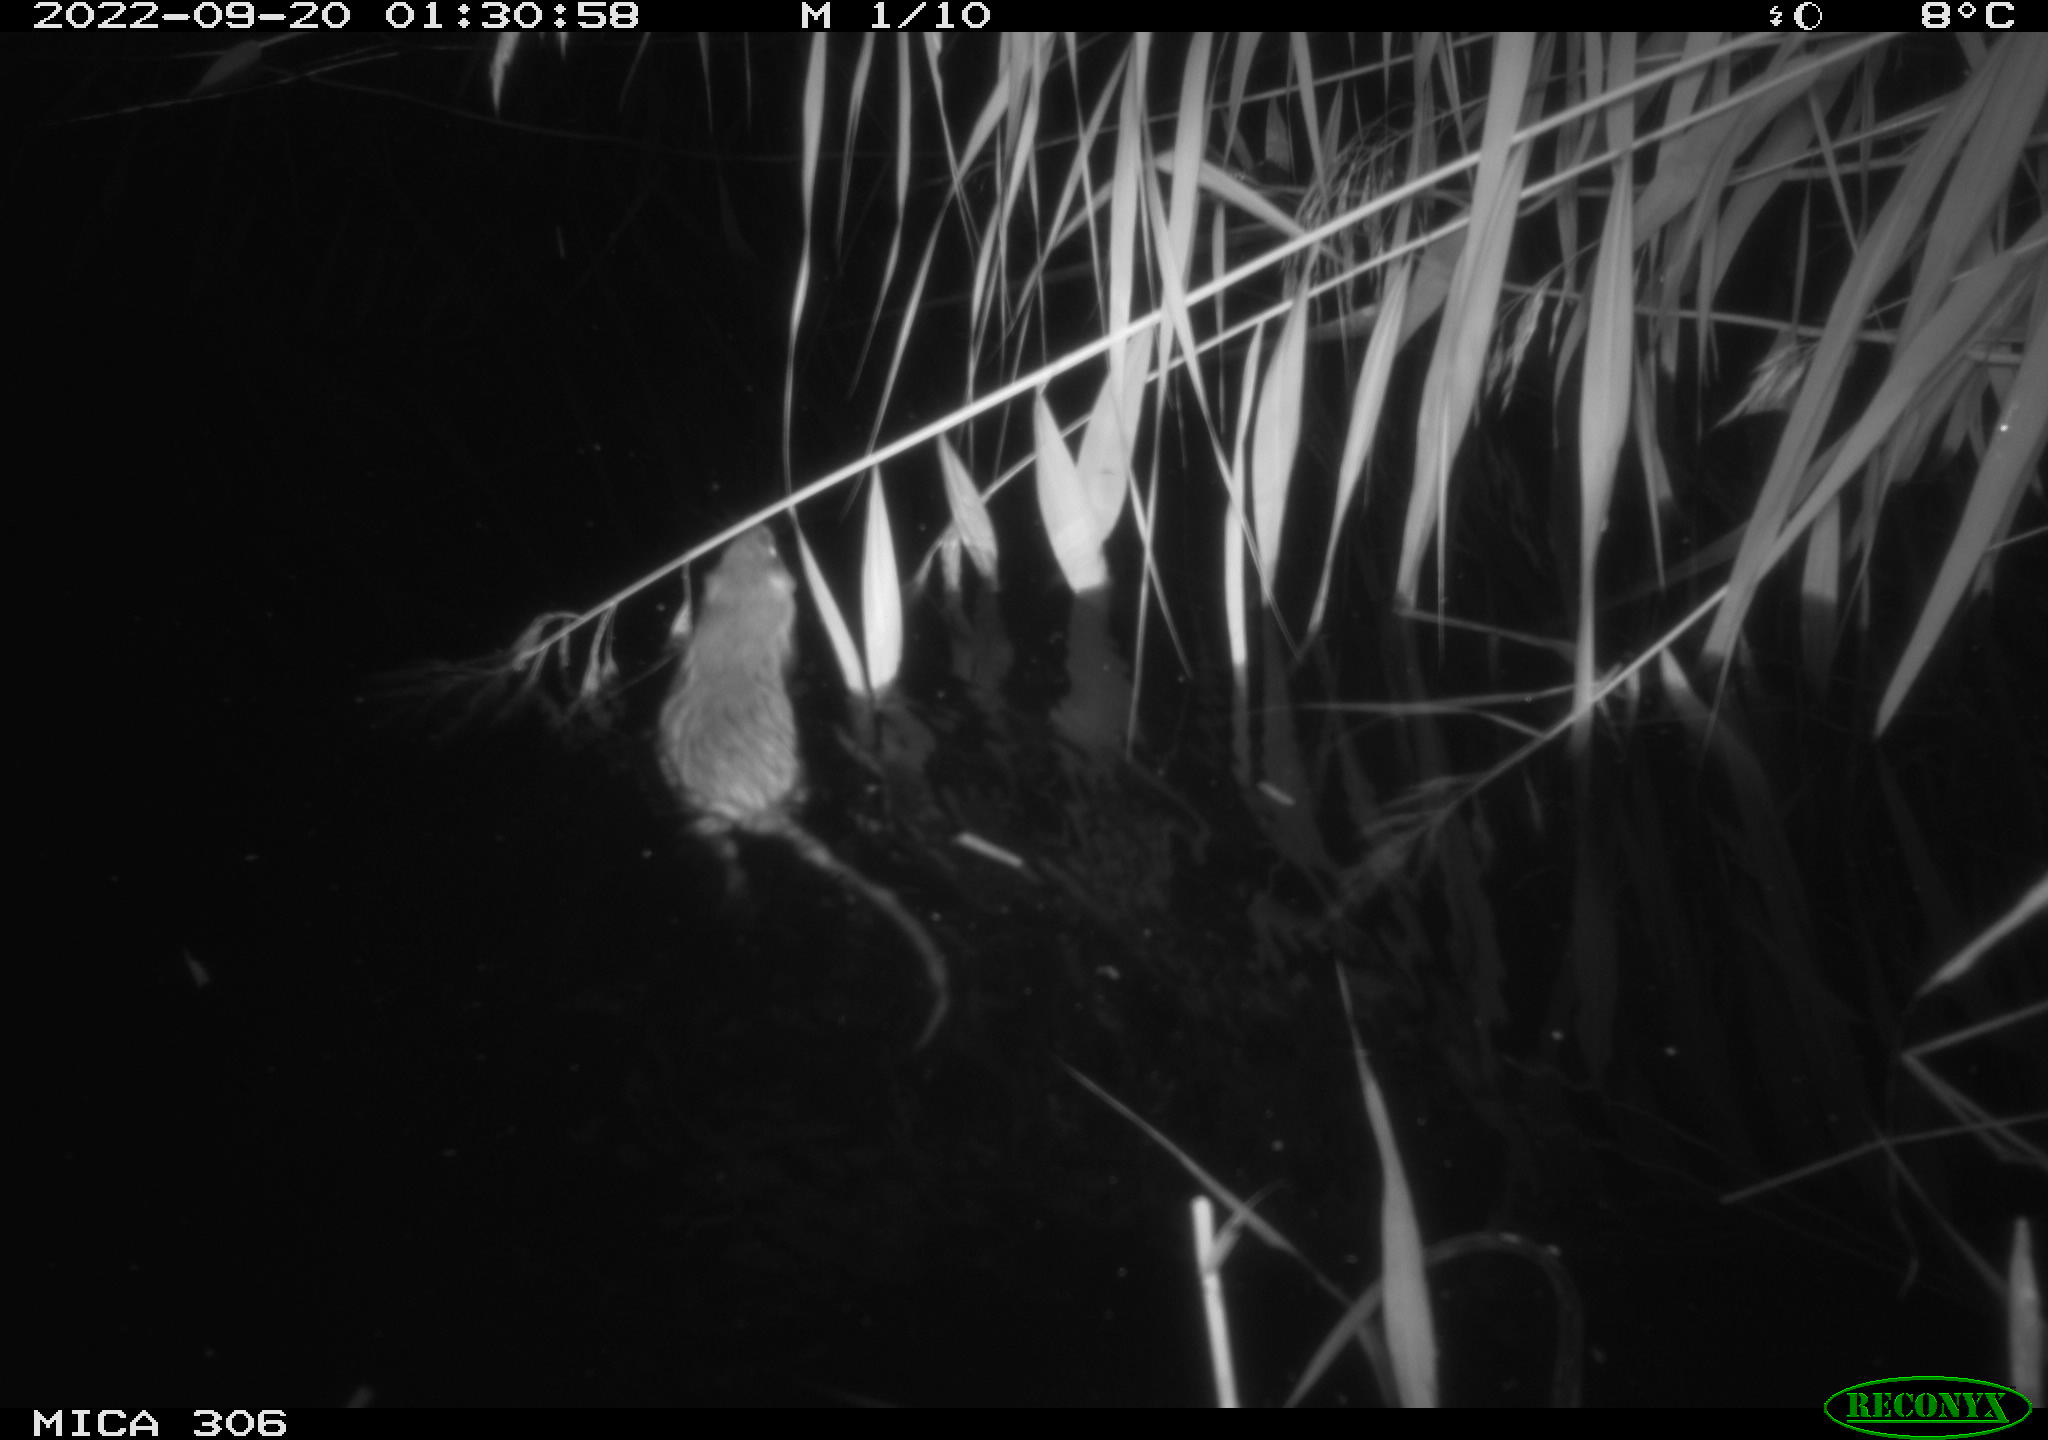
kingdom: Animalia
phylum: Chordata
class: Mammalia
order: Rodentia
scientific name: Rodentia
